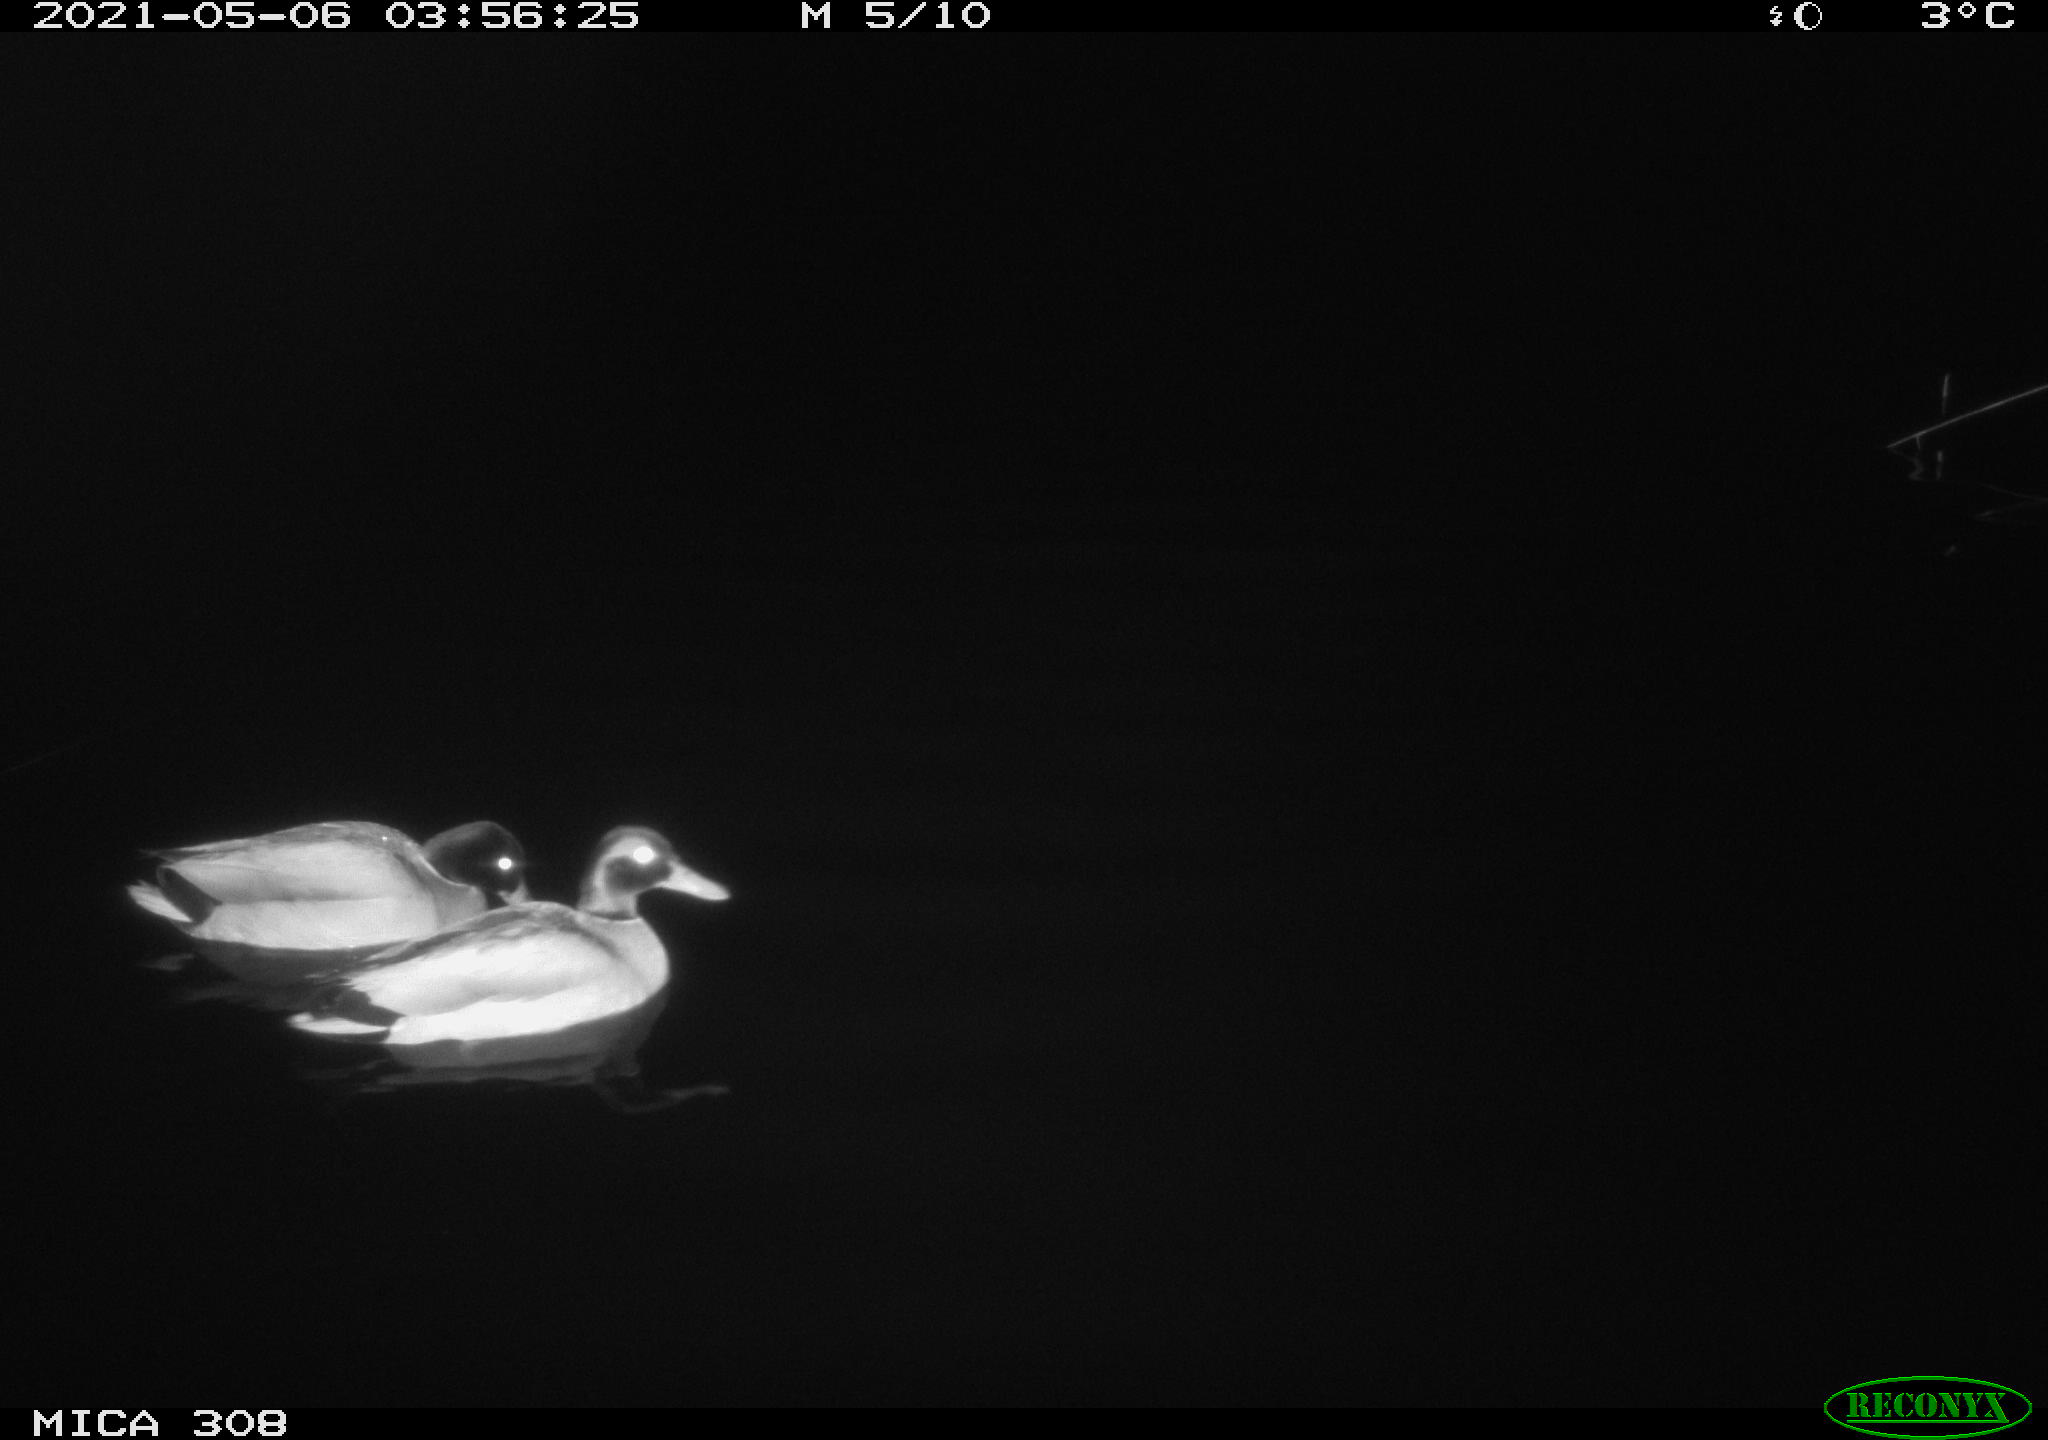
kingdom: Animalia
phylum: Chordata
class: Aves
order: Anseriformes
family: Anatidae
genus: Anas
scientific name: Anas platyrhynchos
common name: Mallard
